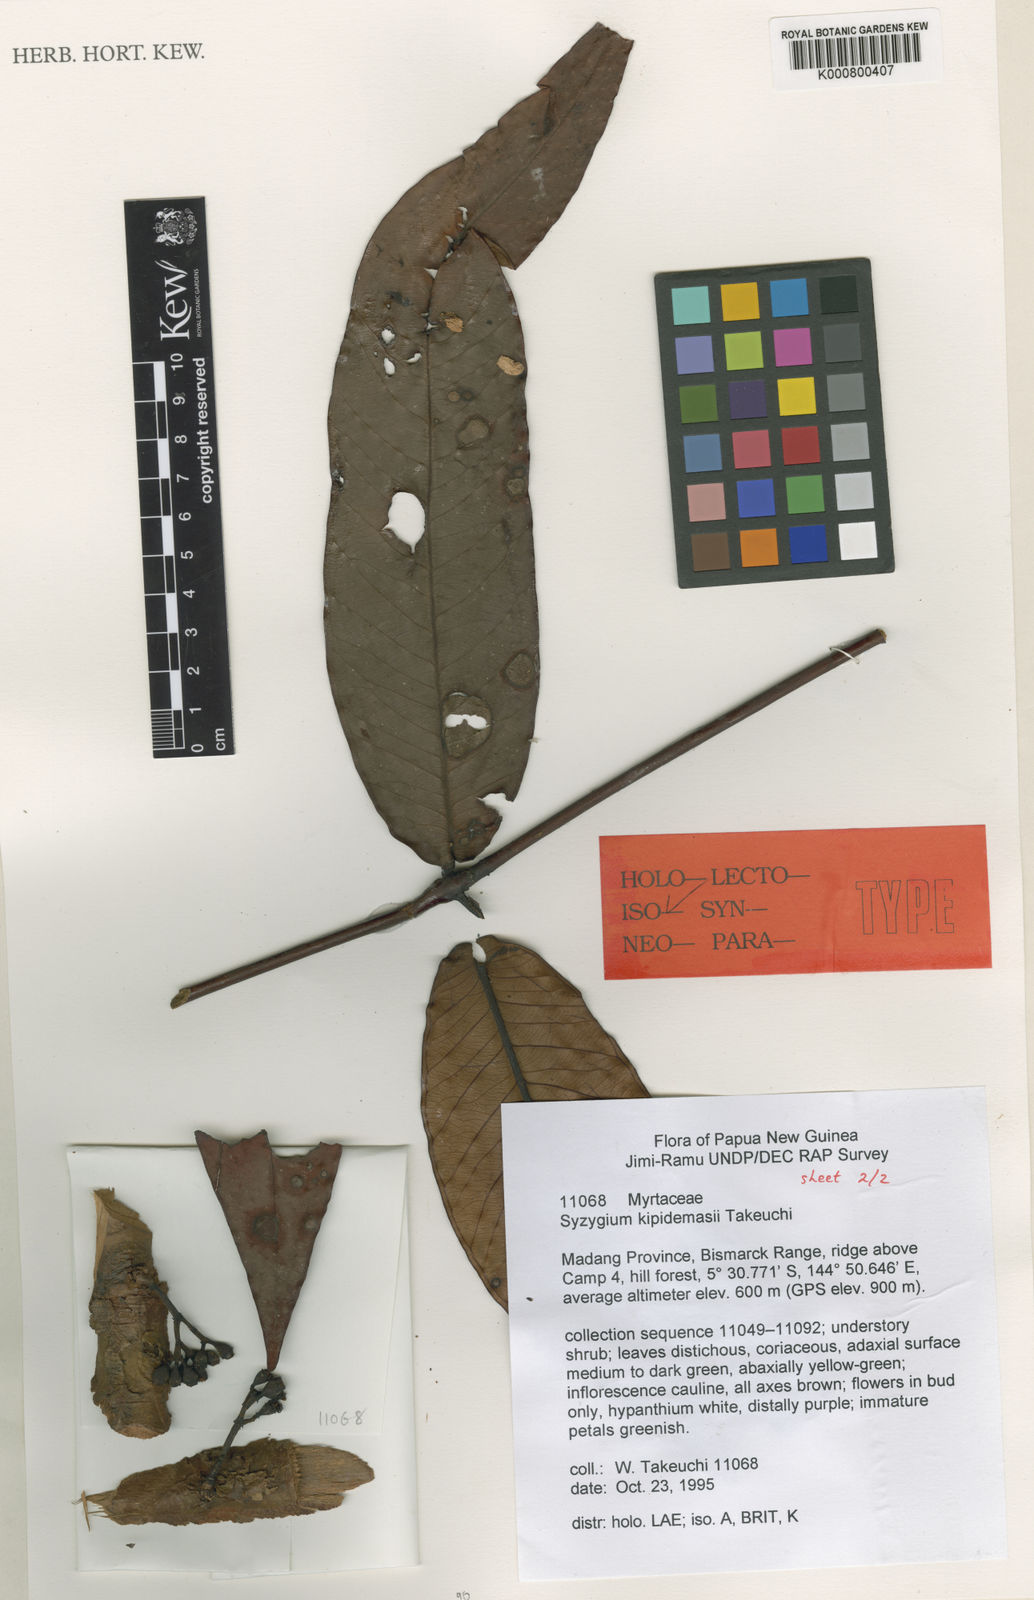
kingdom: Plantae
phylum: Tracheophyta
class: Magnoliopsida
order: Myrtales
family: Myrtaceae
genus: Syzygium
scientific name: Syzygium kipidamasii
